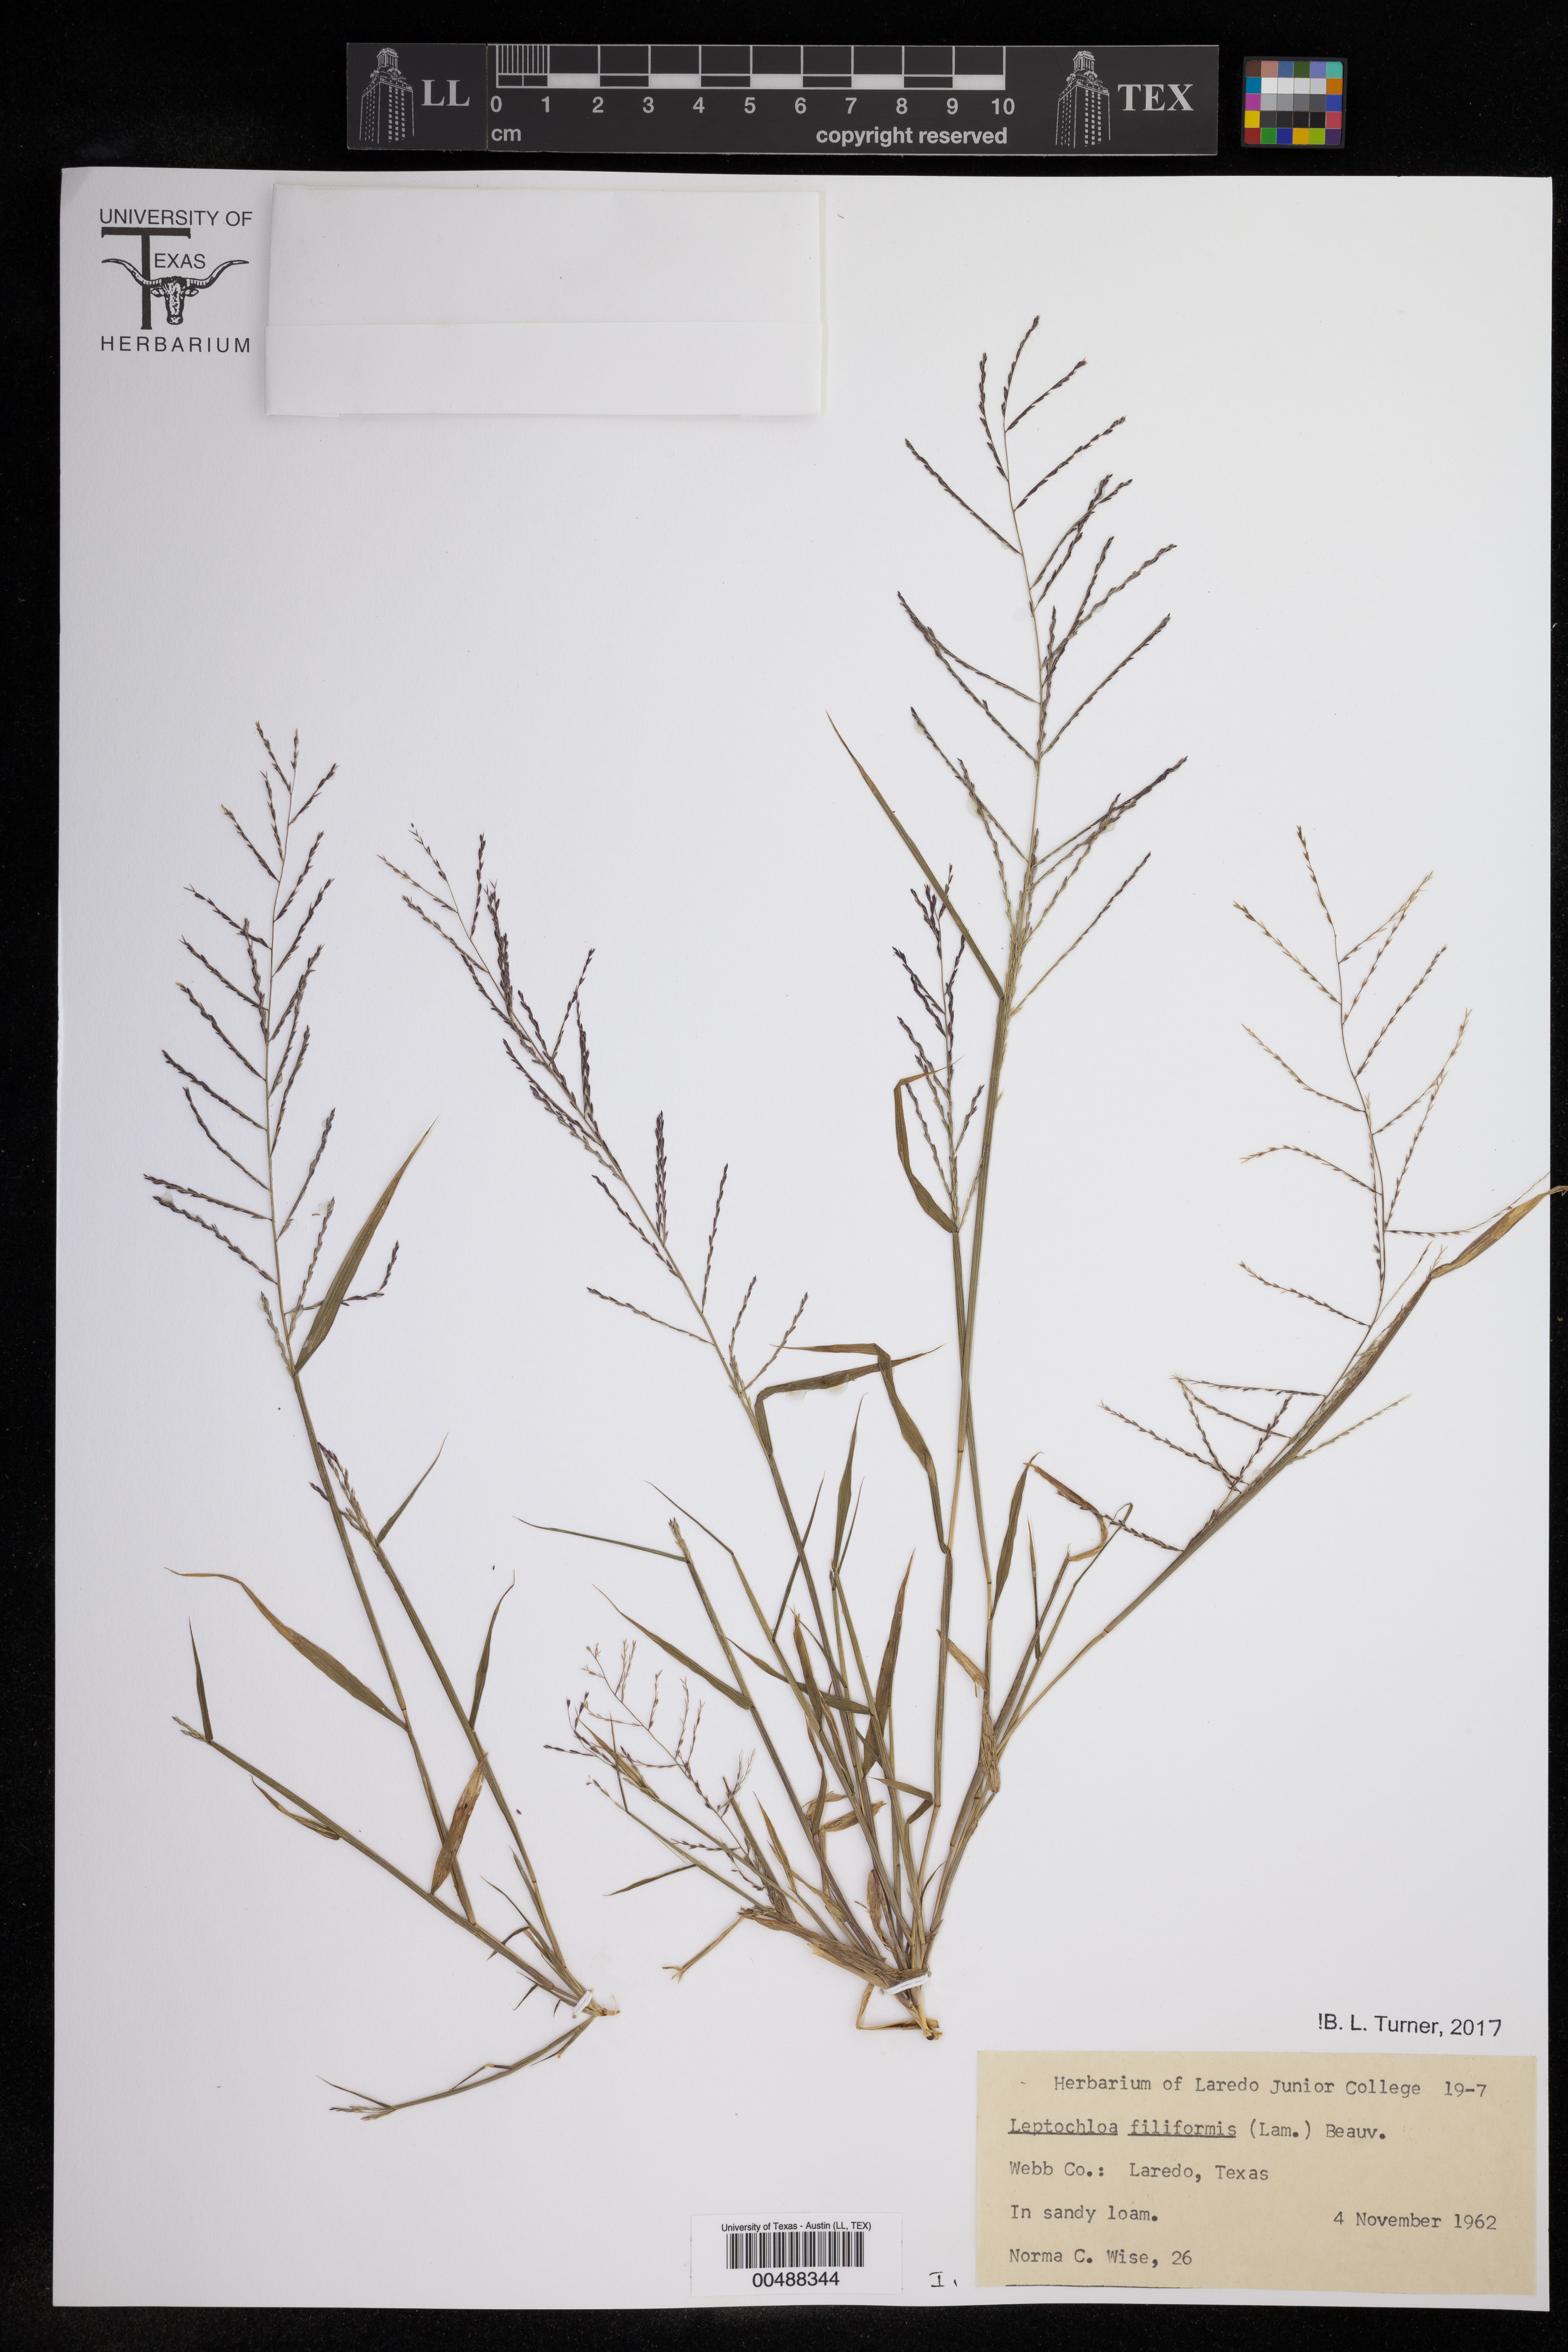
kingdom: Plantae
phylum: Tracheophyta
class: Liliopsida
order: Poales
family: Poaceae
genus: Leptochloa
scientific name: Leptochloa filiformis
